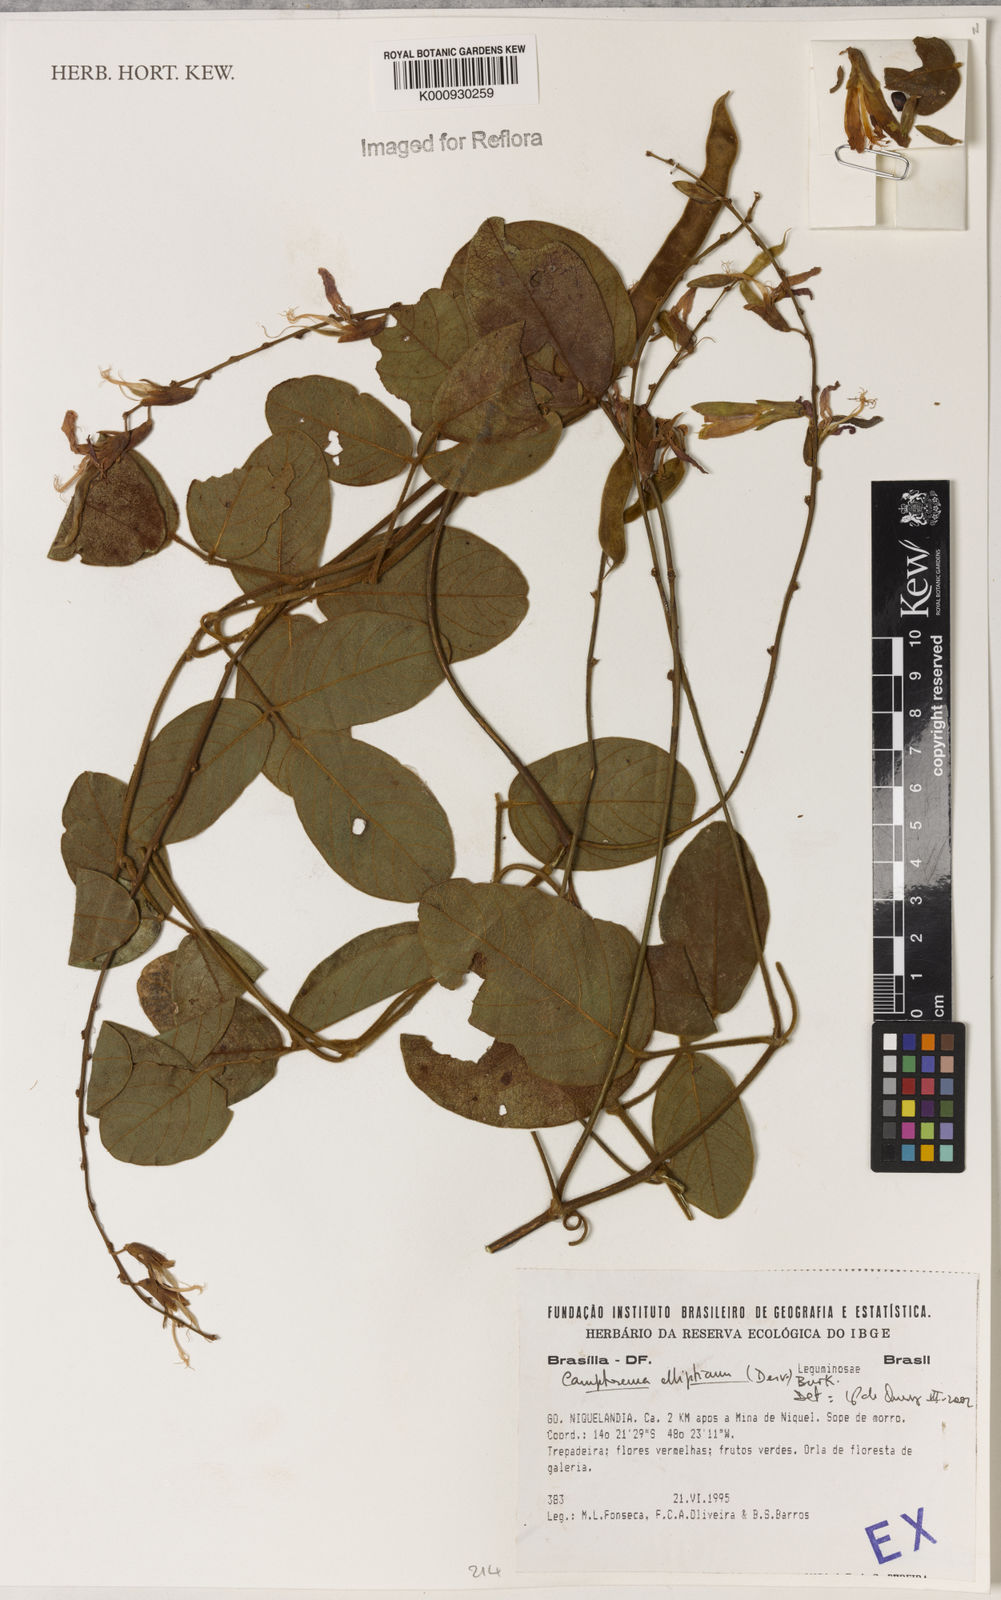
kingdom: Plantae
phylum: Tracheophyta
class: Magnoliopsida
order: Fabales
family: Fabaceae
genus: Camptosema
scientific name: Camptosema
